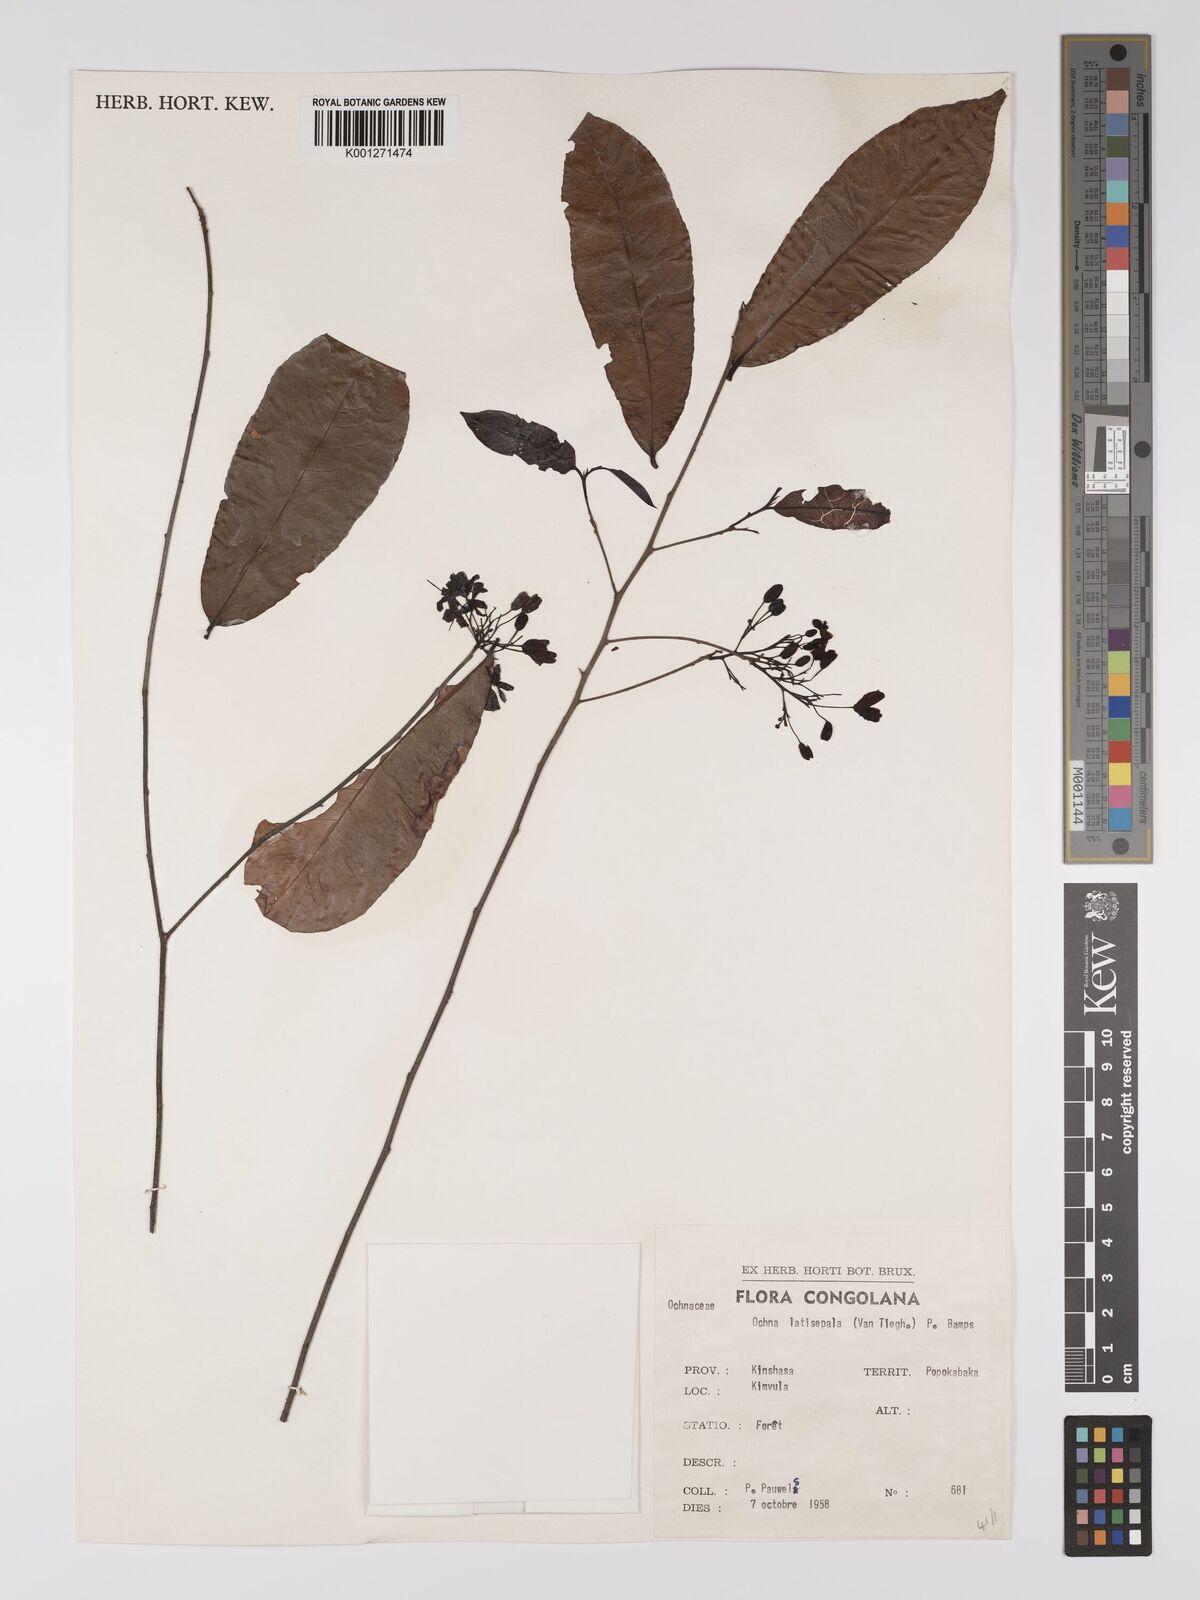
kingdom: Plantae
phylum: Tracheophyta
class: Magnoliopsida
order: Malpighiales
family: Ochnaceae
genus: Ochna
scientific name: Ochna latisepala
